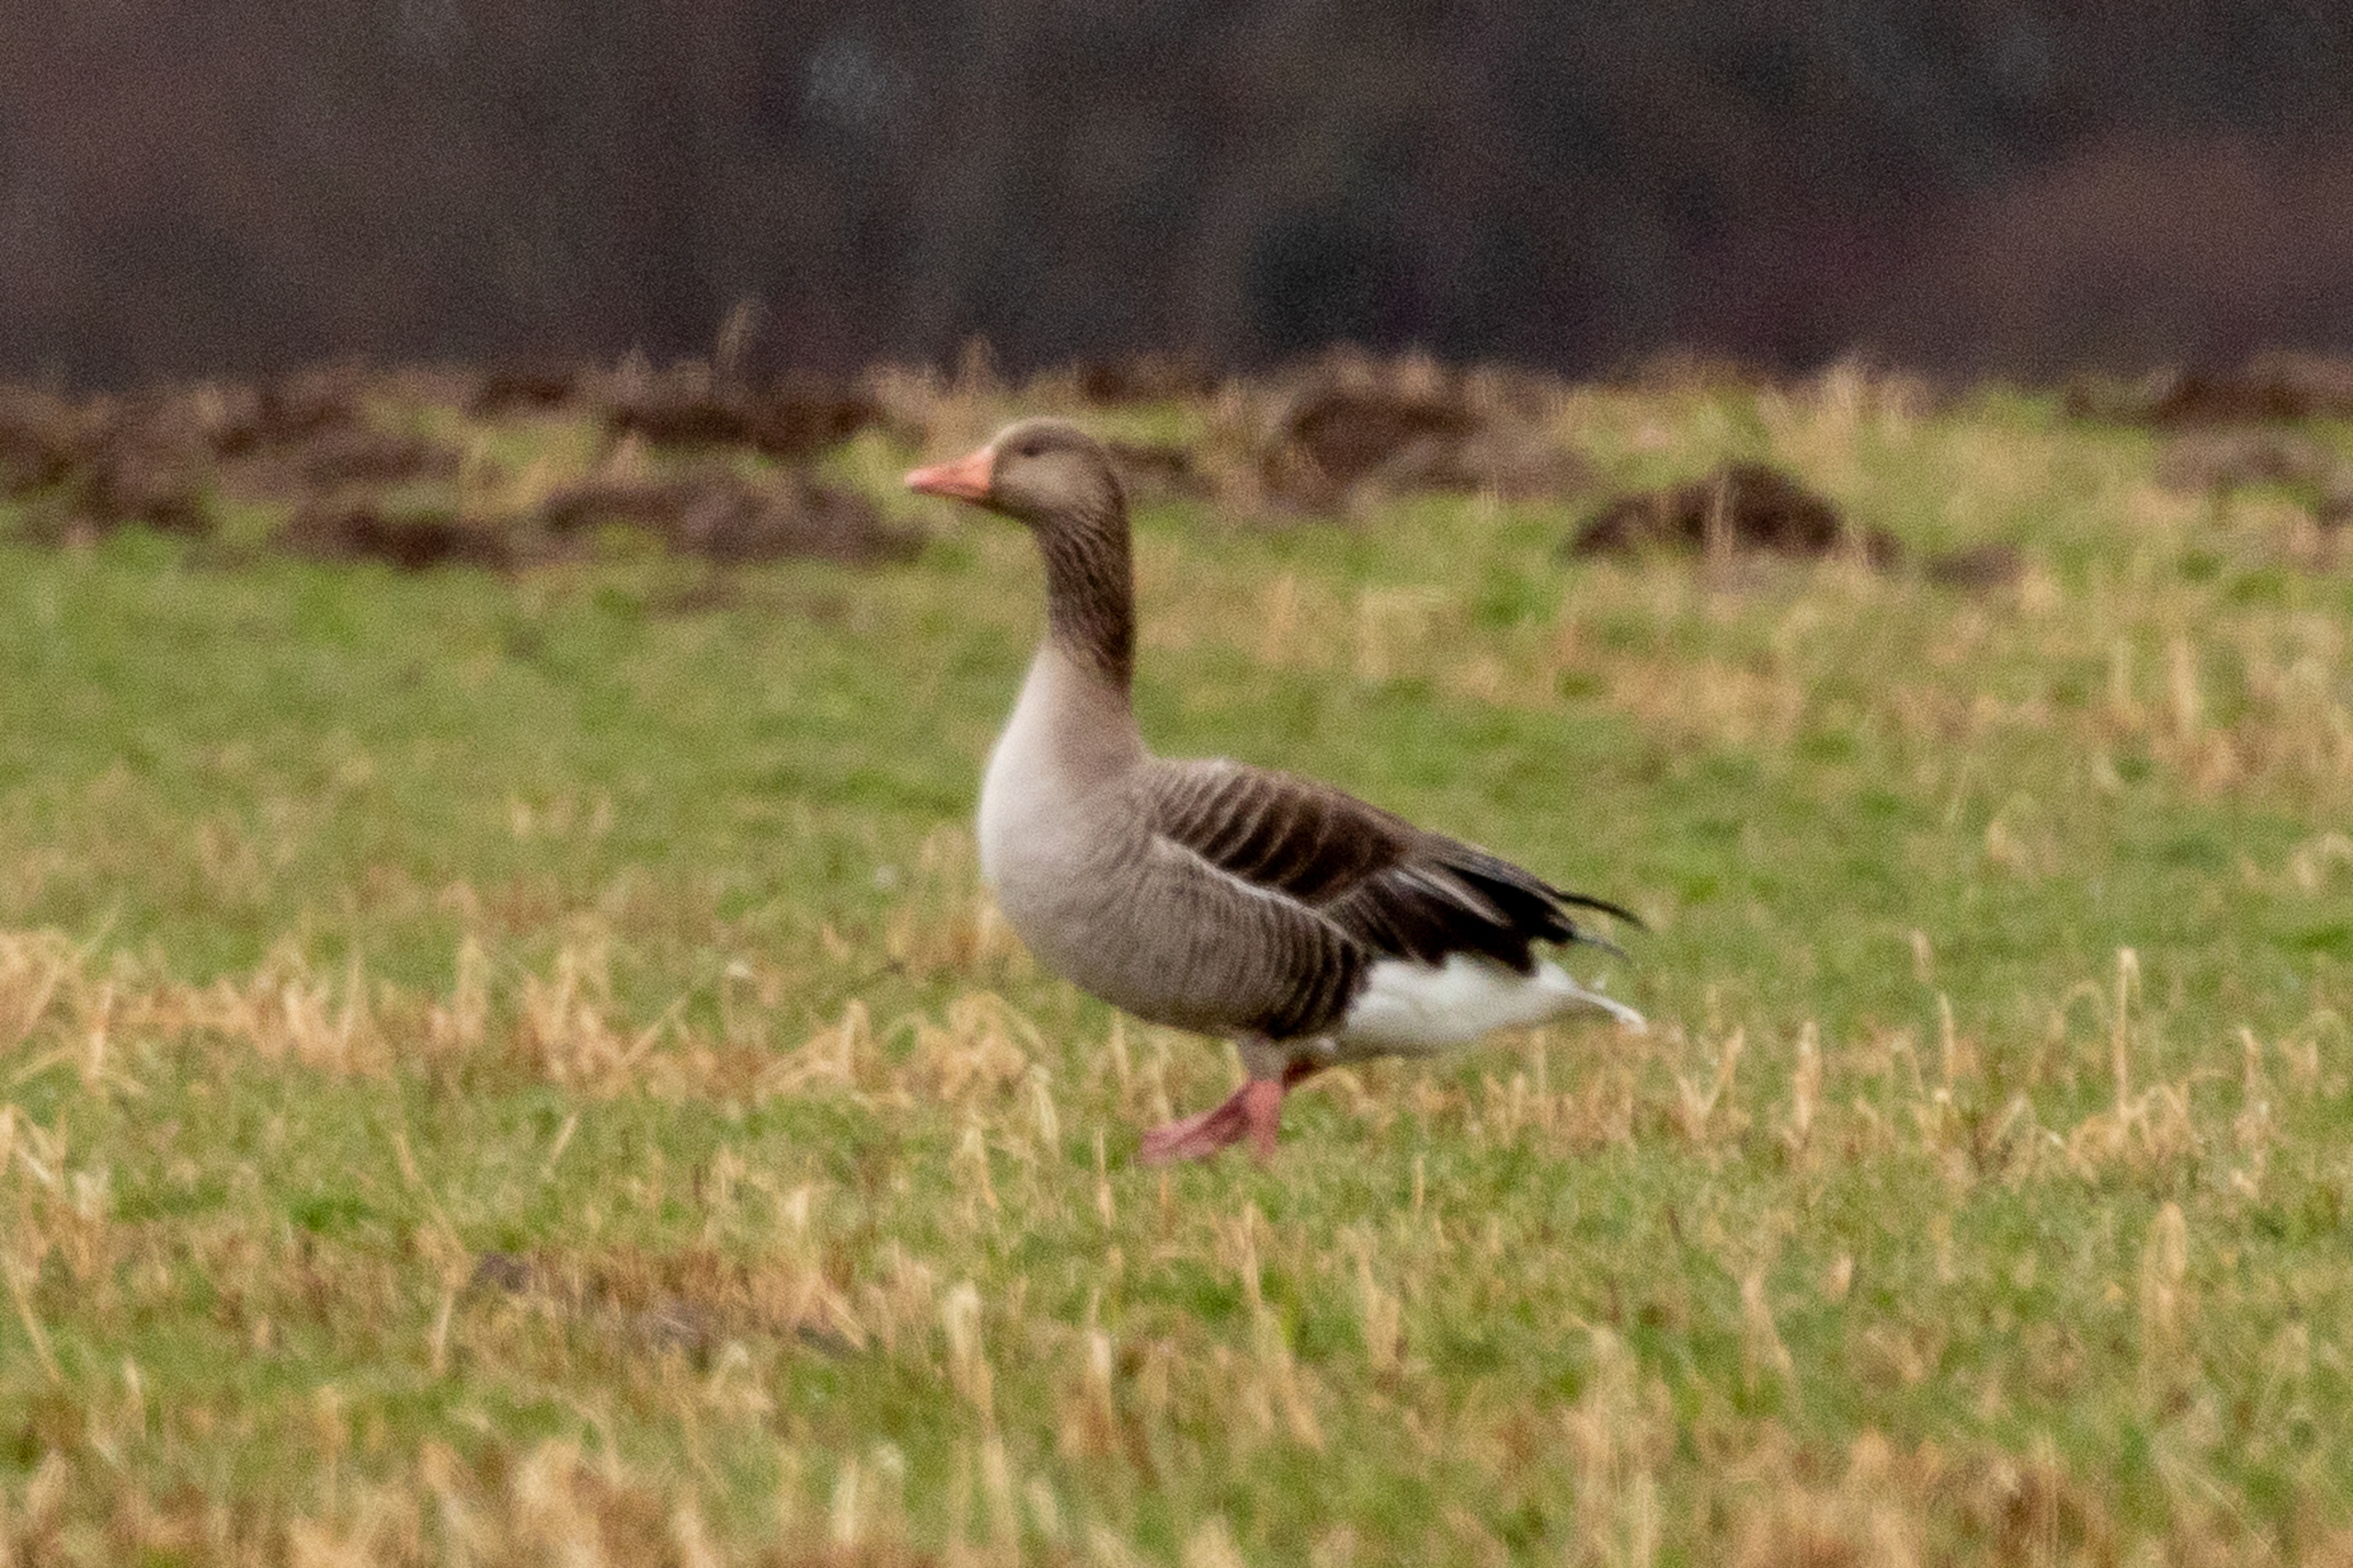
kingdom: Animalia
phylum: Chordata
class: Aves
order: Anseriformes
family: Anatidae
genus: Anser
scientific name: Anser anser
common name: Grågås
